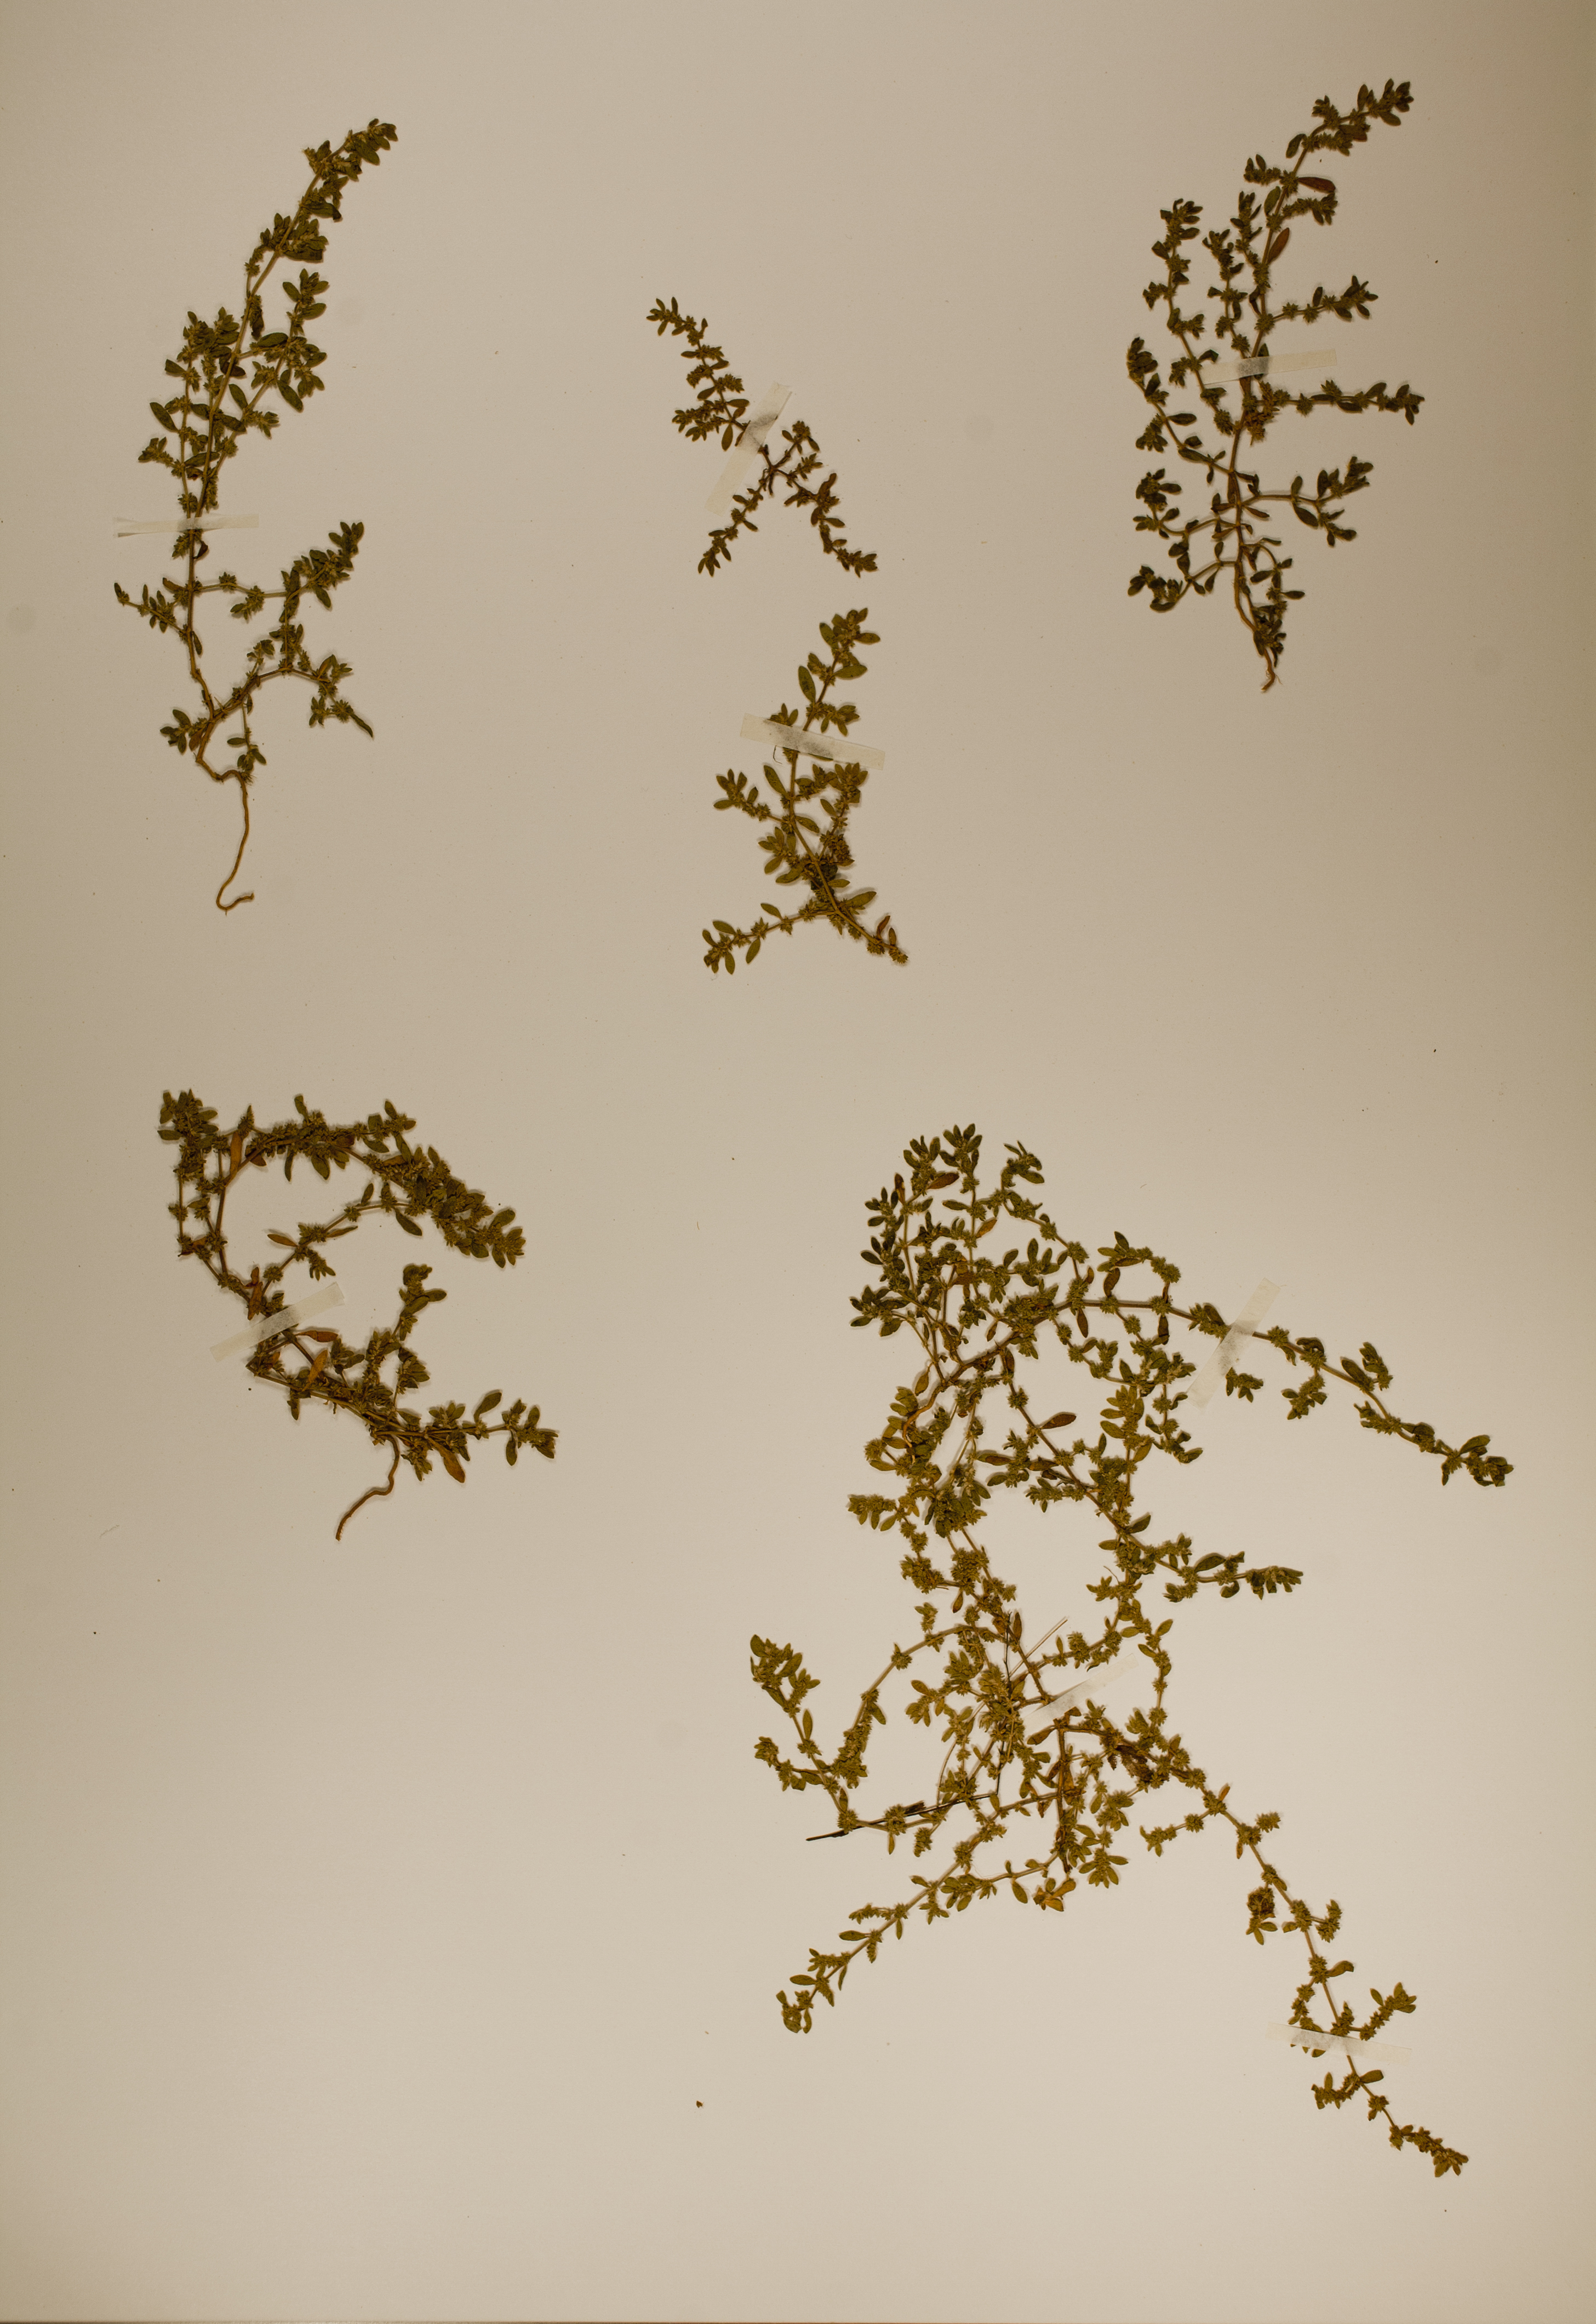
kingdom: Plantae
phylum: Tracheophyta
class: Magnoliopsida
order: Caryophyllales
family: Caryophyllaceae
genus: Herniaria
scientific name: Herniaria hirsuta
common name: Hairy rupturewort
